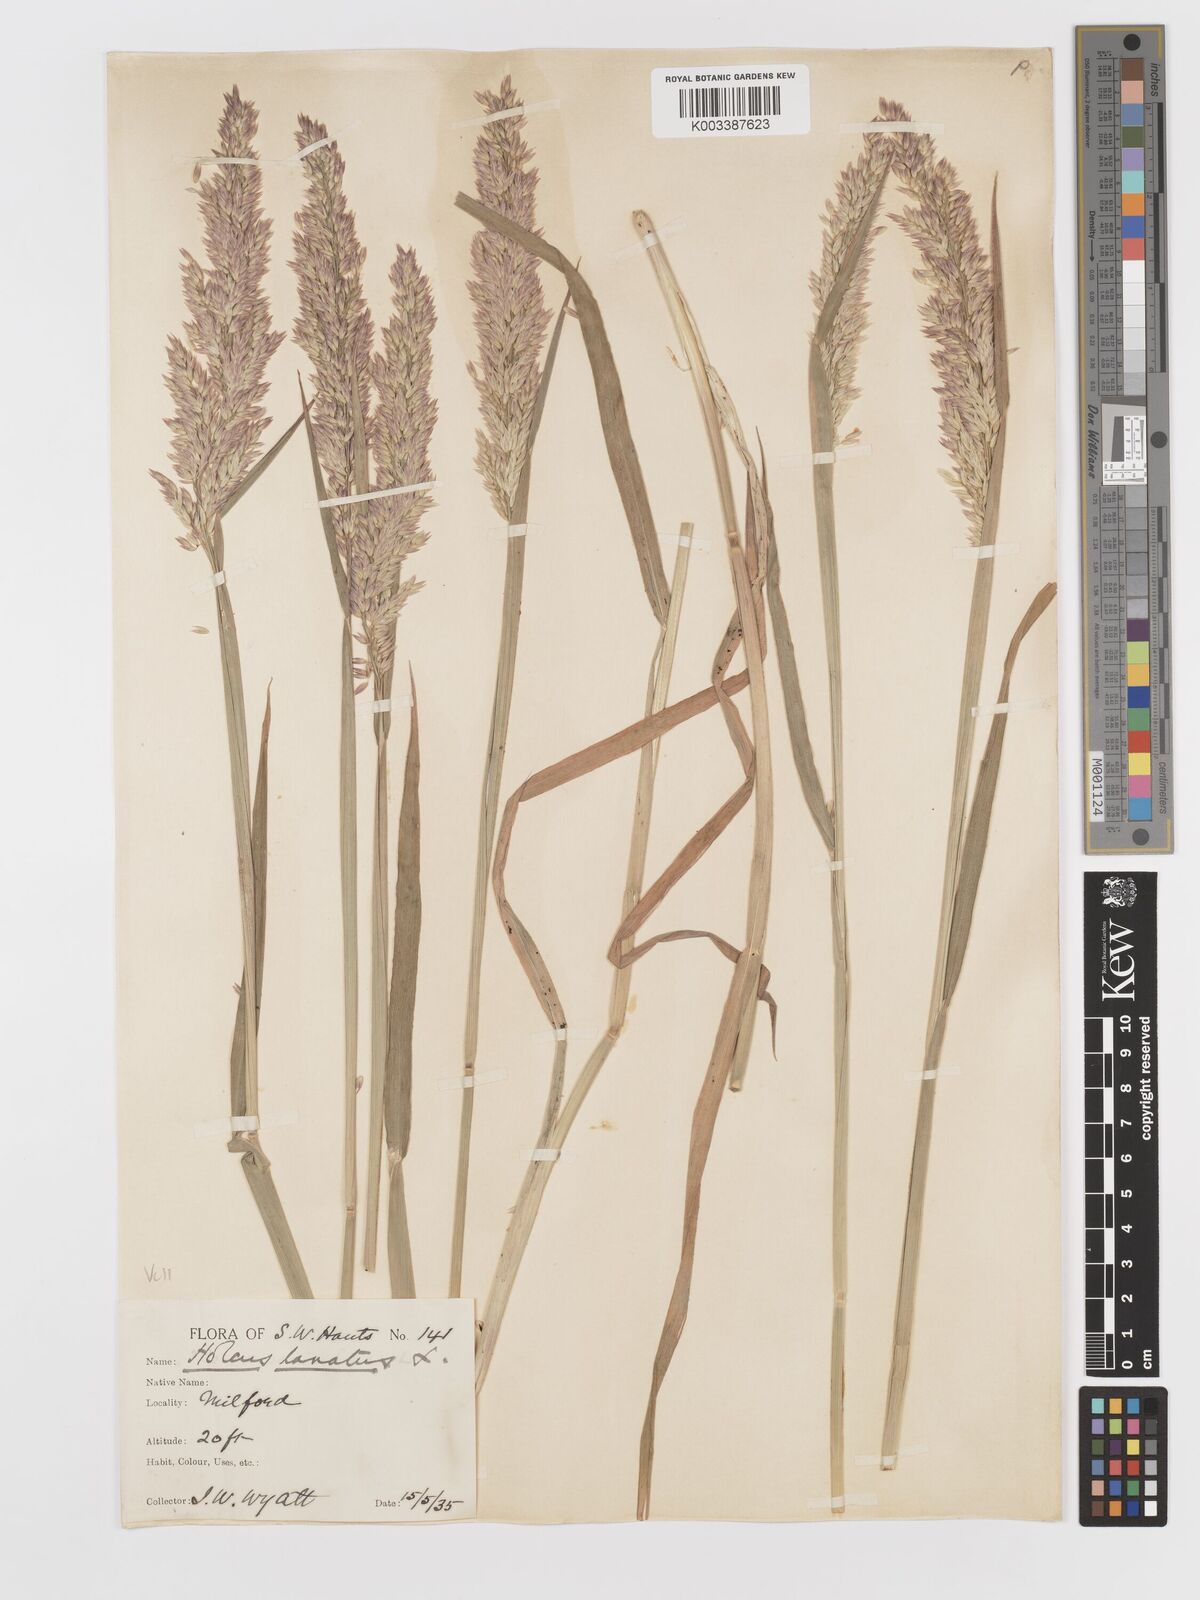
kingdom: Plantae
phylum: Tracheophyta
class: Liliopsida
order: Poales
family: Poaceae
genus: Holcus
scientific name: Holcus lanatus
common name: Yorkshire-fog
